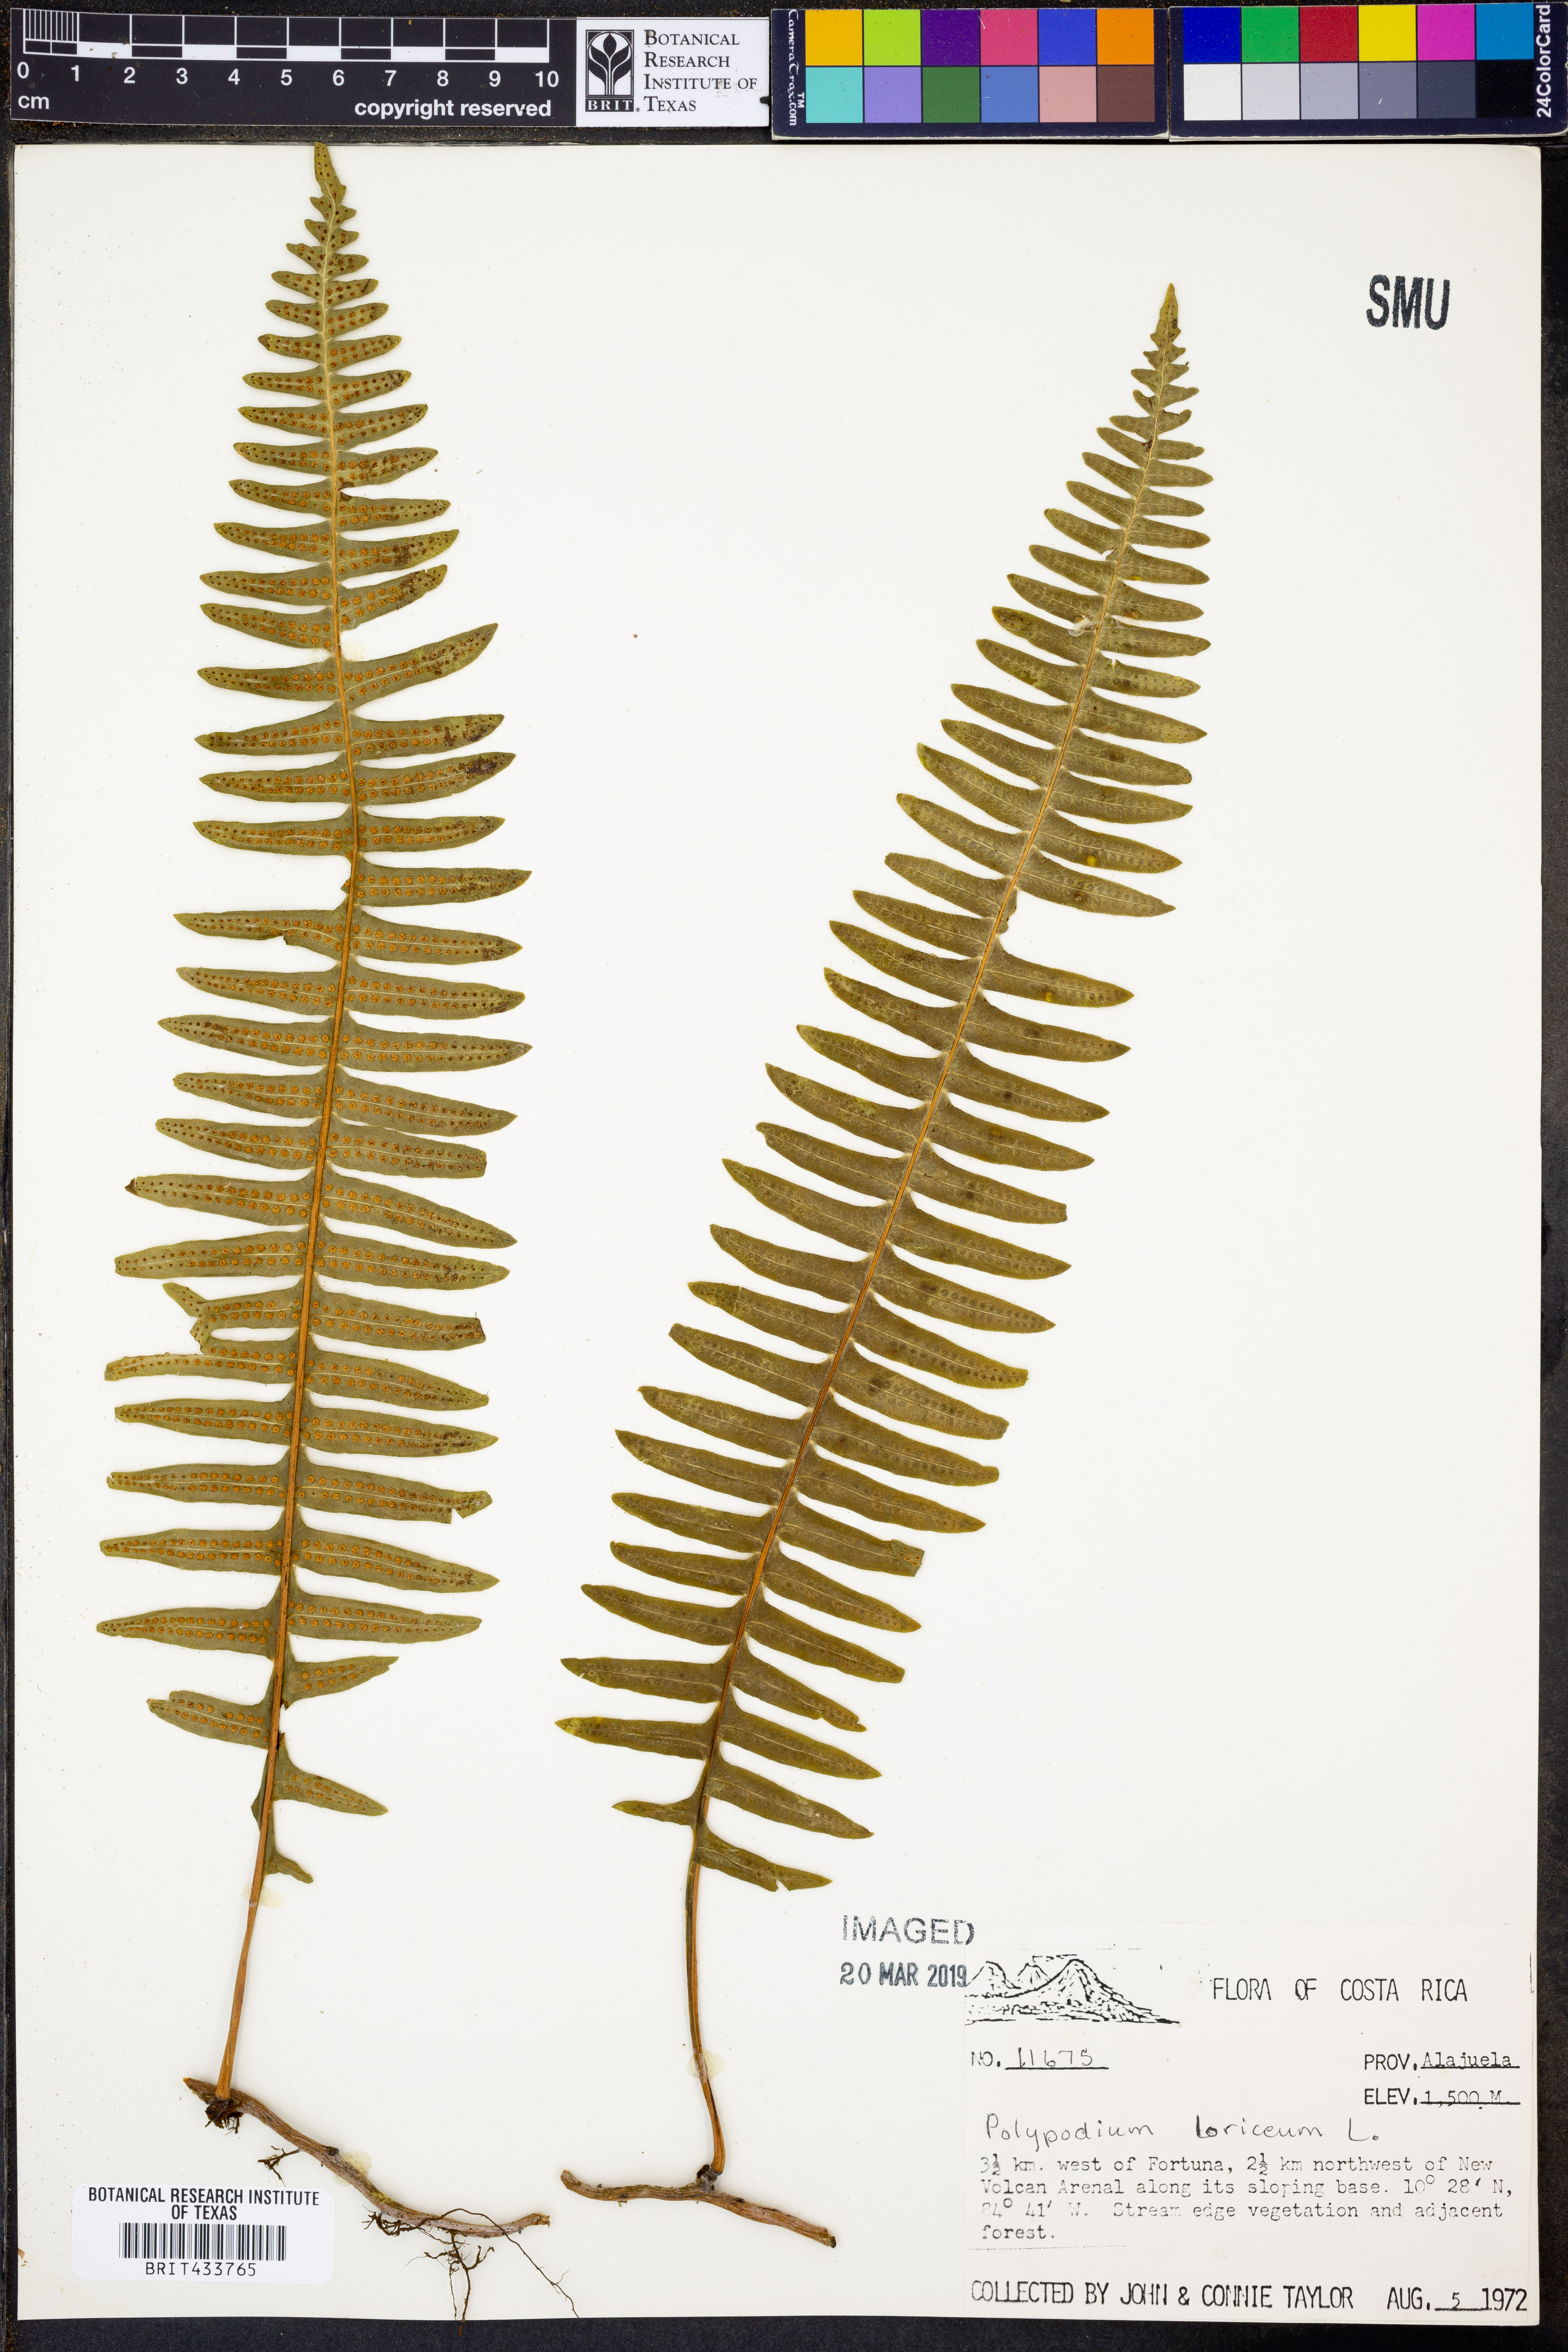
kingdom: Plantae
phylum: Tracheophyta
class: Polypodiopsida
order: Polypodiales
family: Polypodiaceae
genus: Serpocaulon
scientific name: Serpocaulon loriceum
